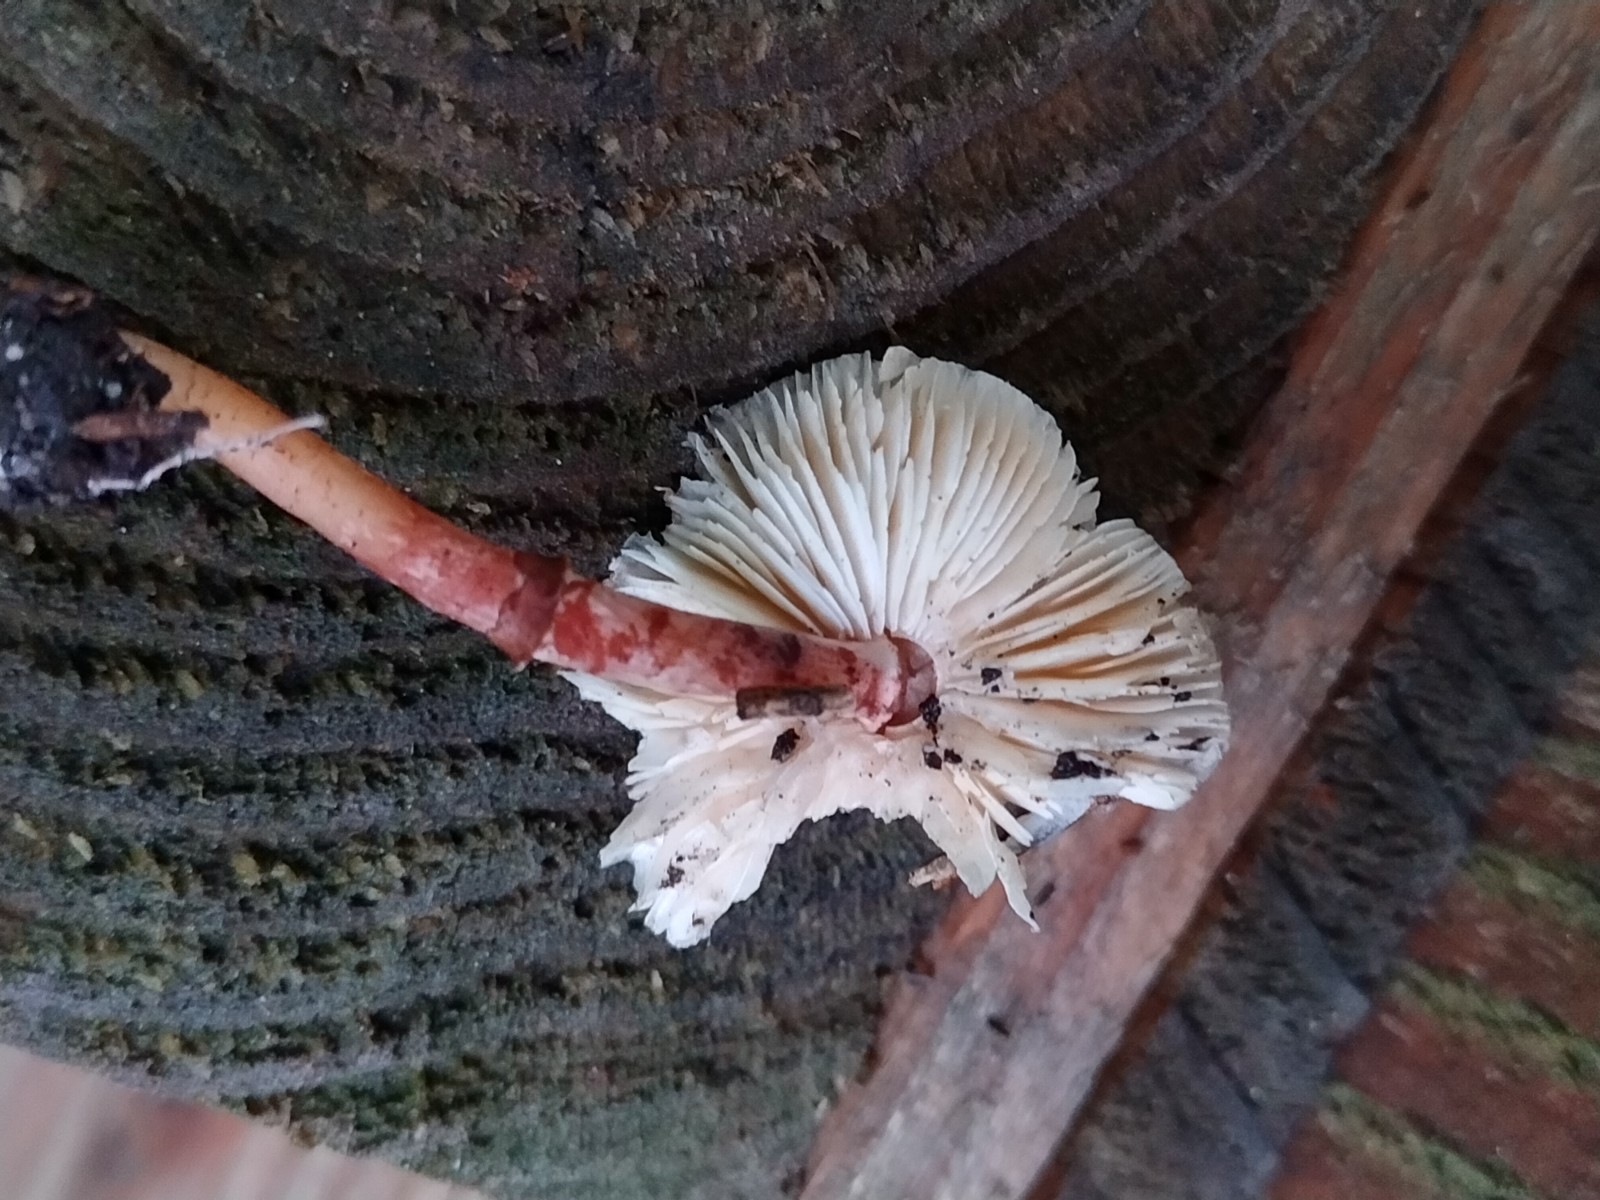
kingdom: Fungi
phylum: Basidiomycota
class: Agaricomycetes
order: Agaricales
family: Agaricaceae
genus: Lepiota
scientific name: Lepiota lilacea
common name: lillabrun parasolhat
